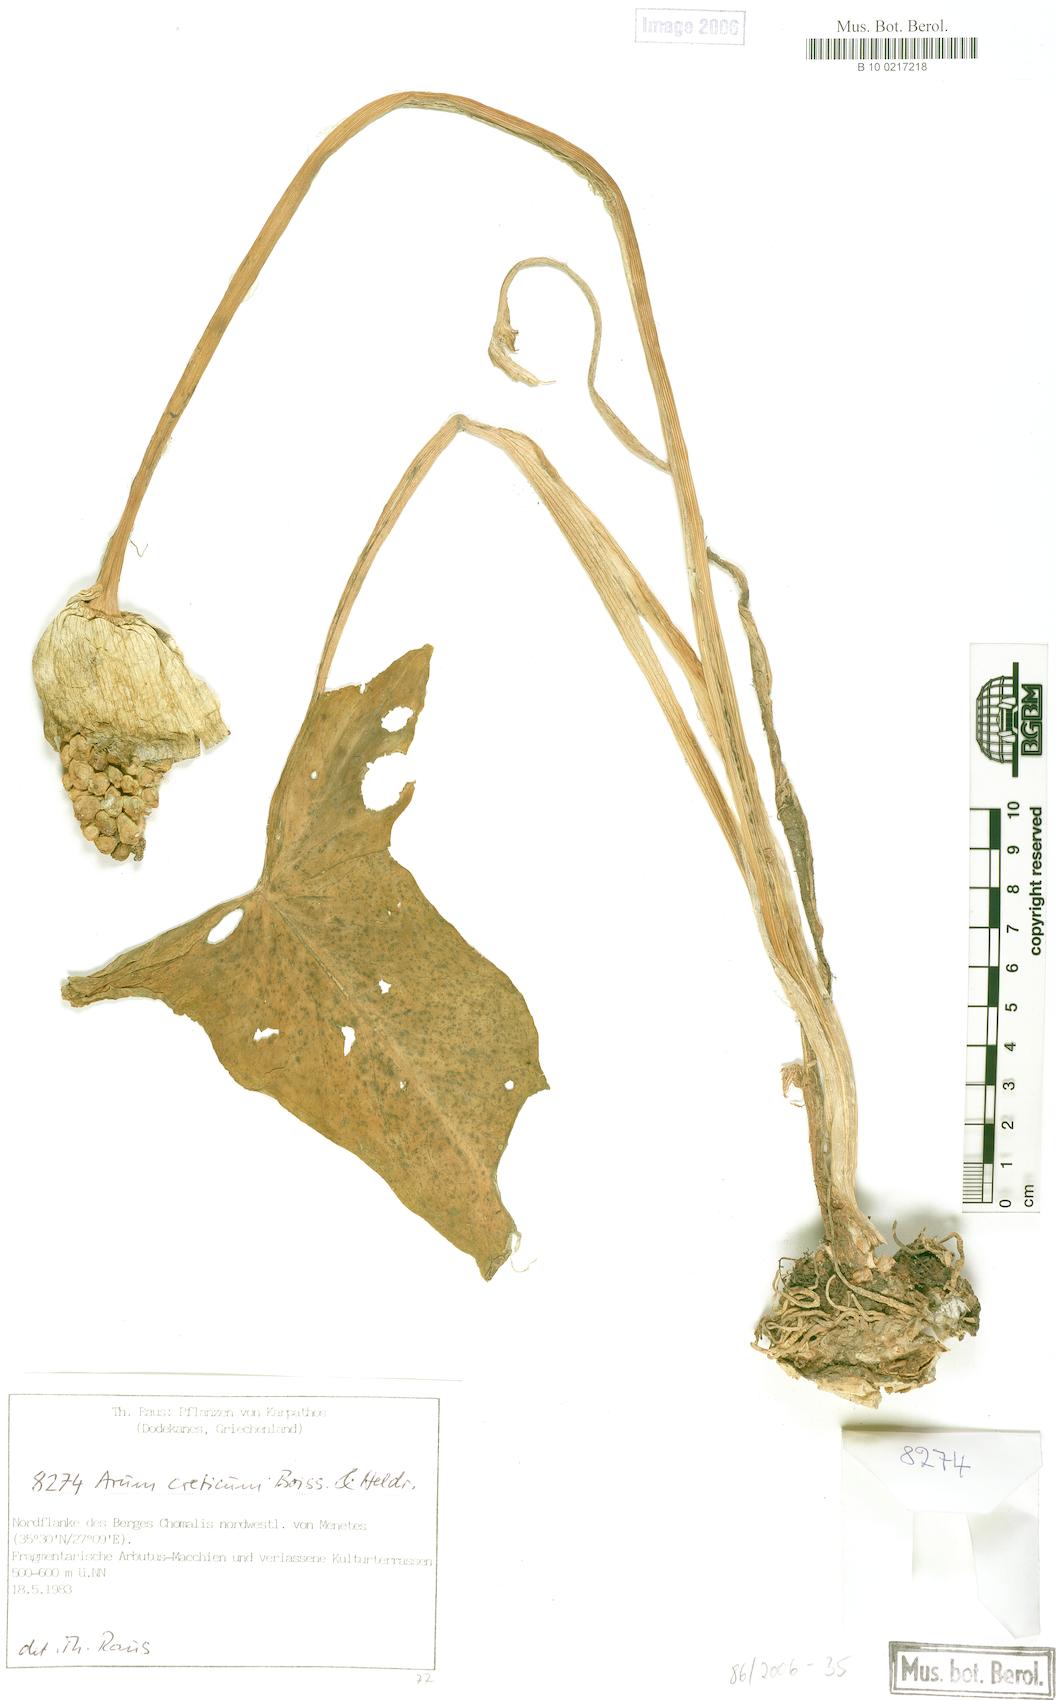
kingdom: Plantae
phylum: Tracheophyta
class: Liliopsida
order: Alismatales
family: Araceae
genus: Arum
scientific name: Arum creticum
